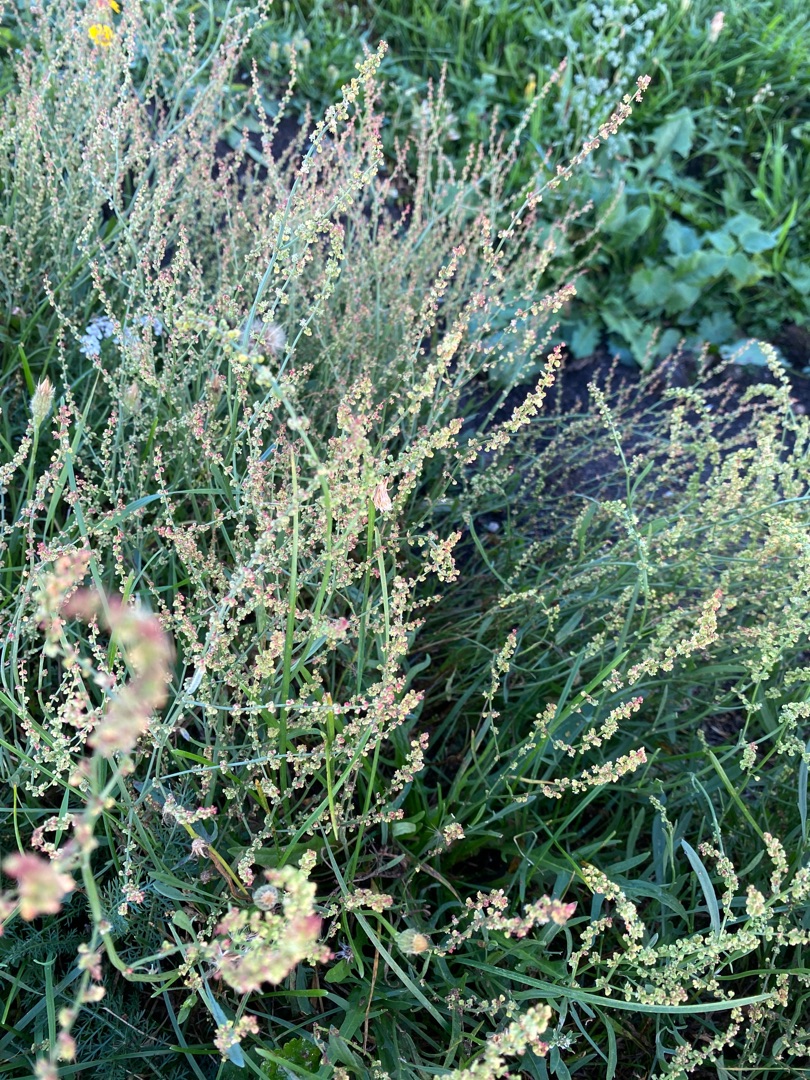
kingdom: Plantae
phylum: Tracheophyta
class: Magnoliopsida
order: Caryophyllales
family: Polygonaceae
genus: Rumex
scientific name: Rumex acetosella
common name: Rødknæ
